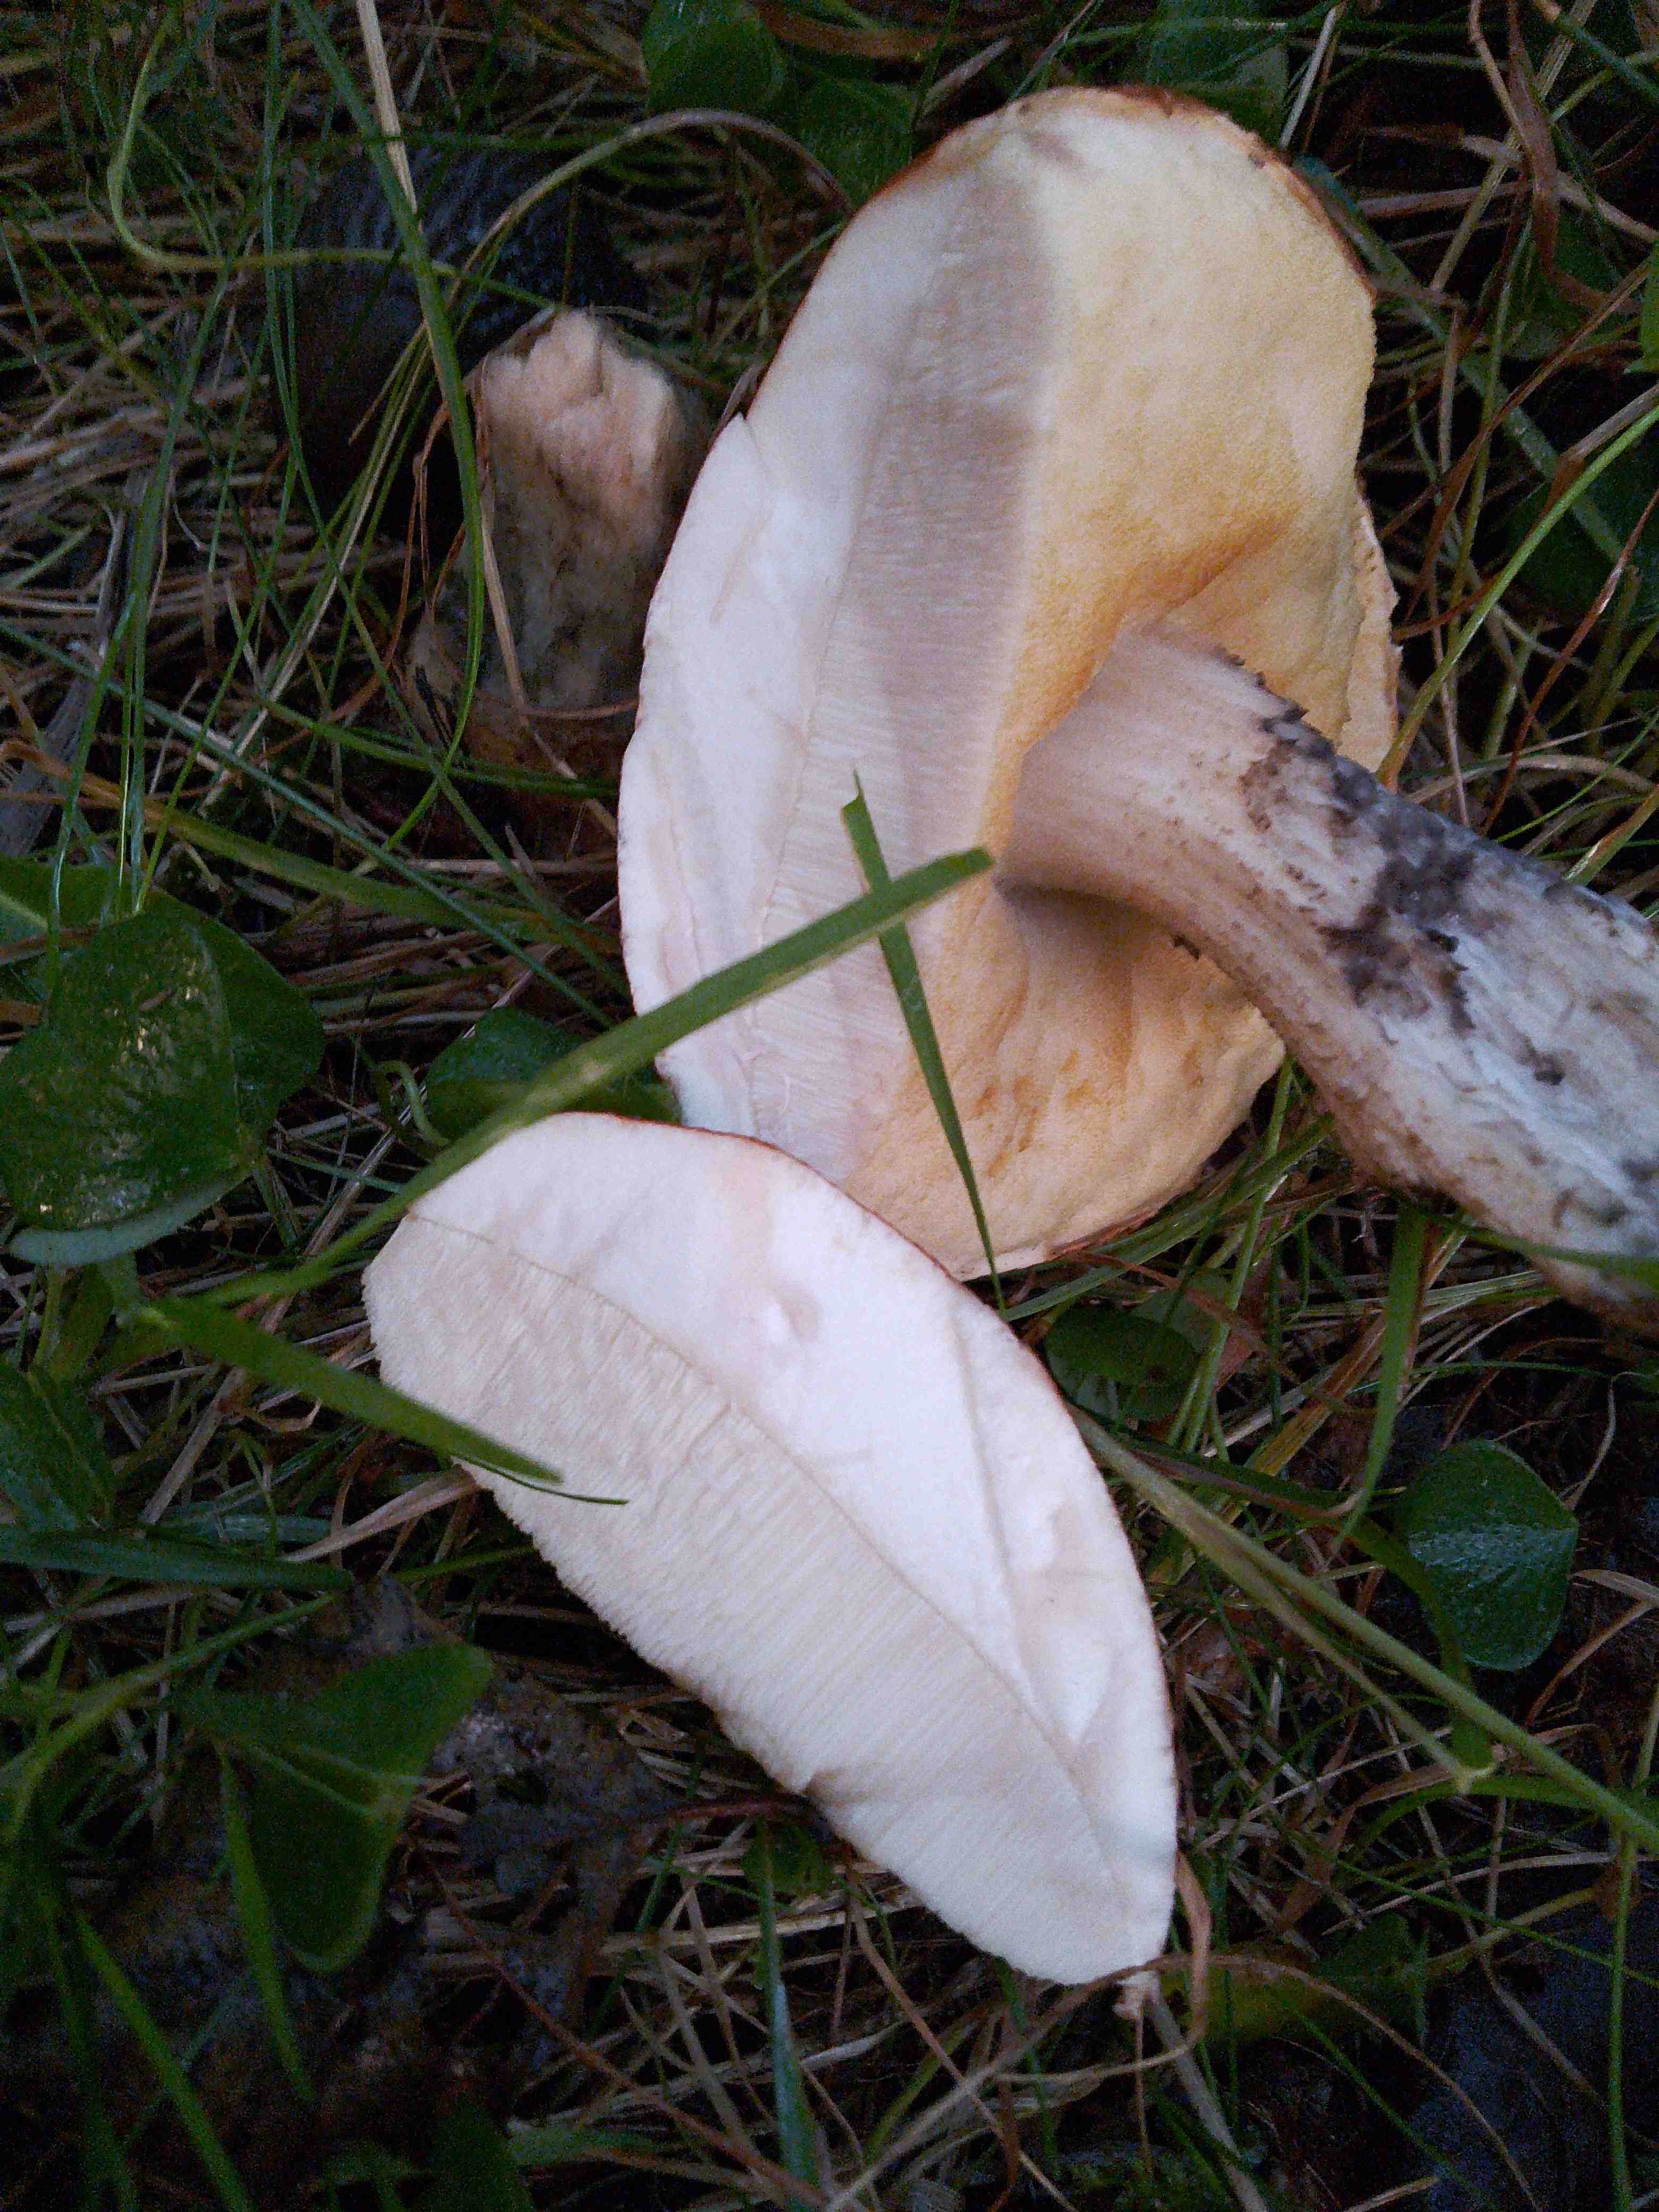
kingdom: Fungi
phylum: Basidiomycota
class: Agaricomycetes
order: Boletales
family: Boletaceae
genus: Leccinum
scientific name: Leccinum
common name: skælrørhat
